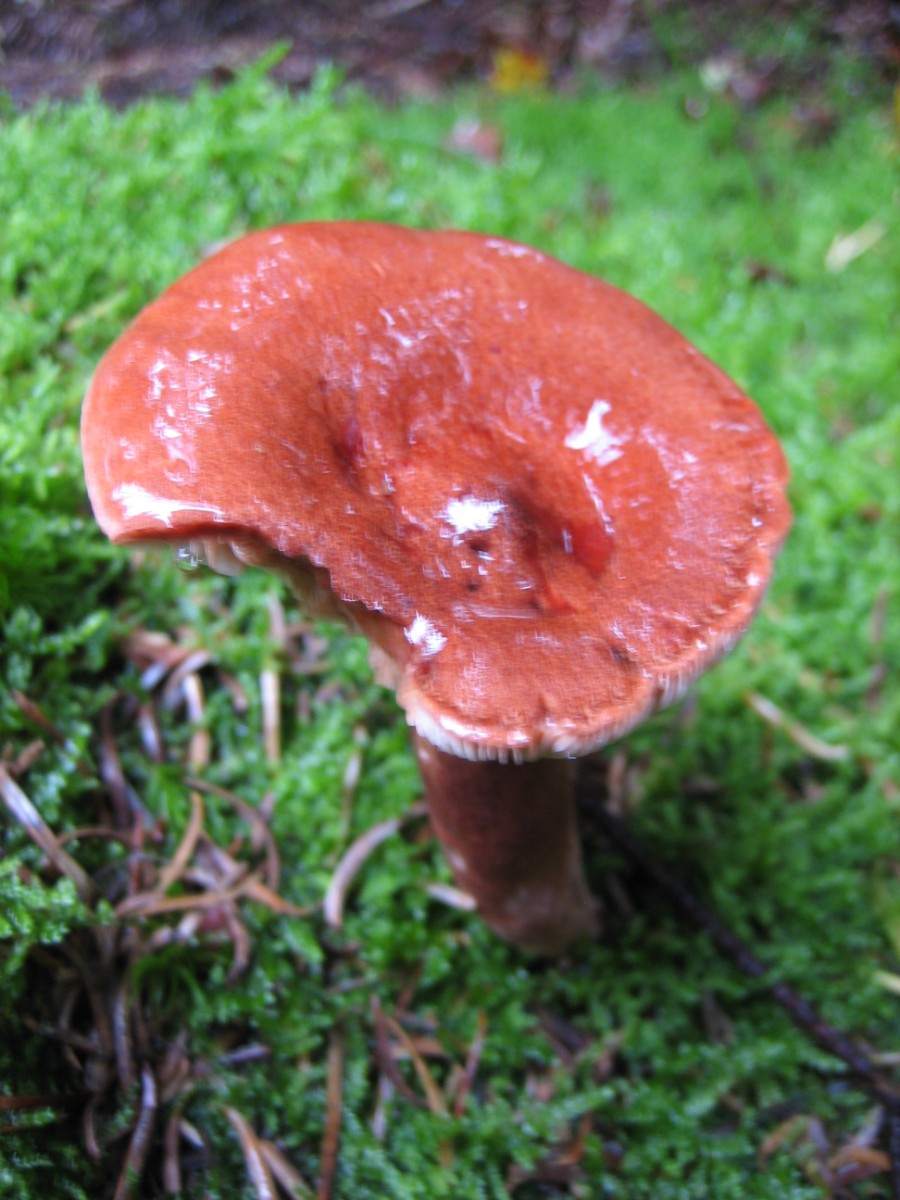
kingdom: Fungi
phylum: Basidiomycota
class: Agaricomycetes
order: Russulales
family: Russulaceae
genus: Lactarius
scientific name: Lactarius rufus
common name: rødbrun mælkehat
